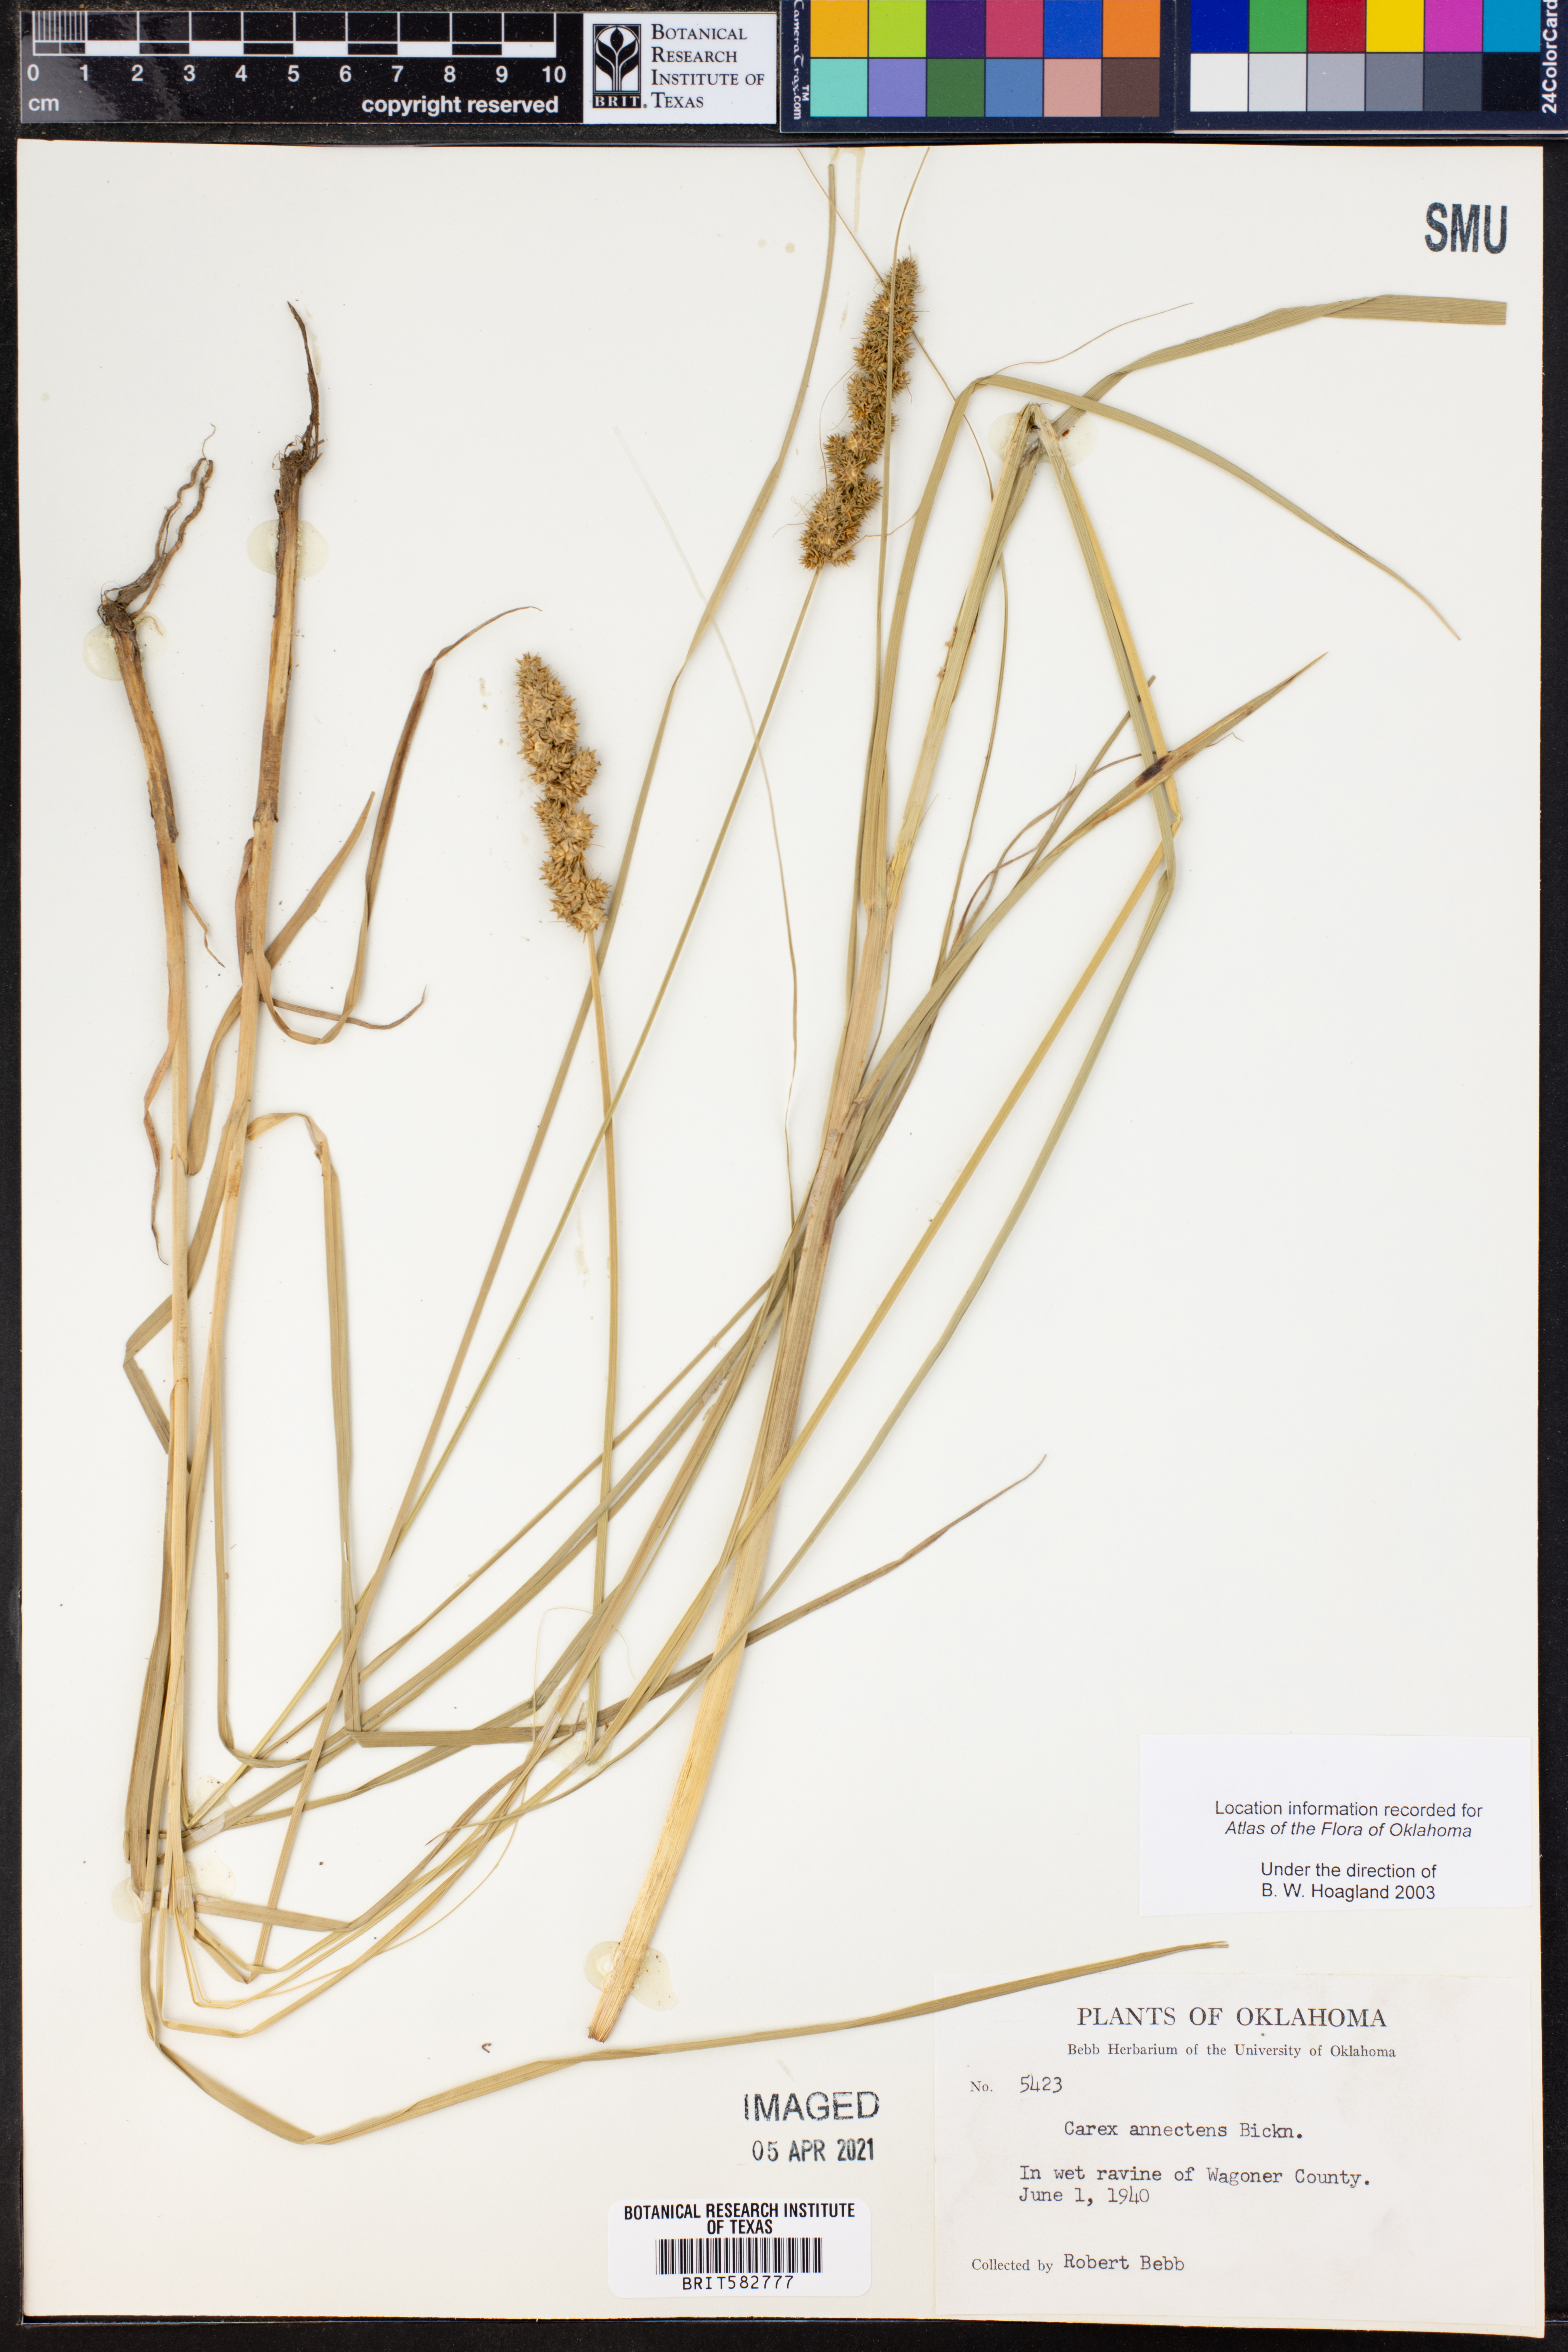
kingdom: Plantae
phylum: Tracheophyta
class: Liliopsida
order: Poales
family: Cyperaceae
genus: Carex
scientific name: Carex annectens
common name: Large fox sedge
